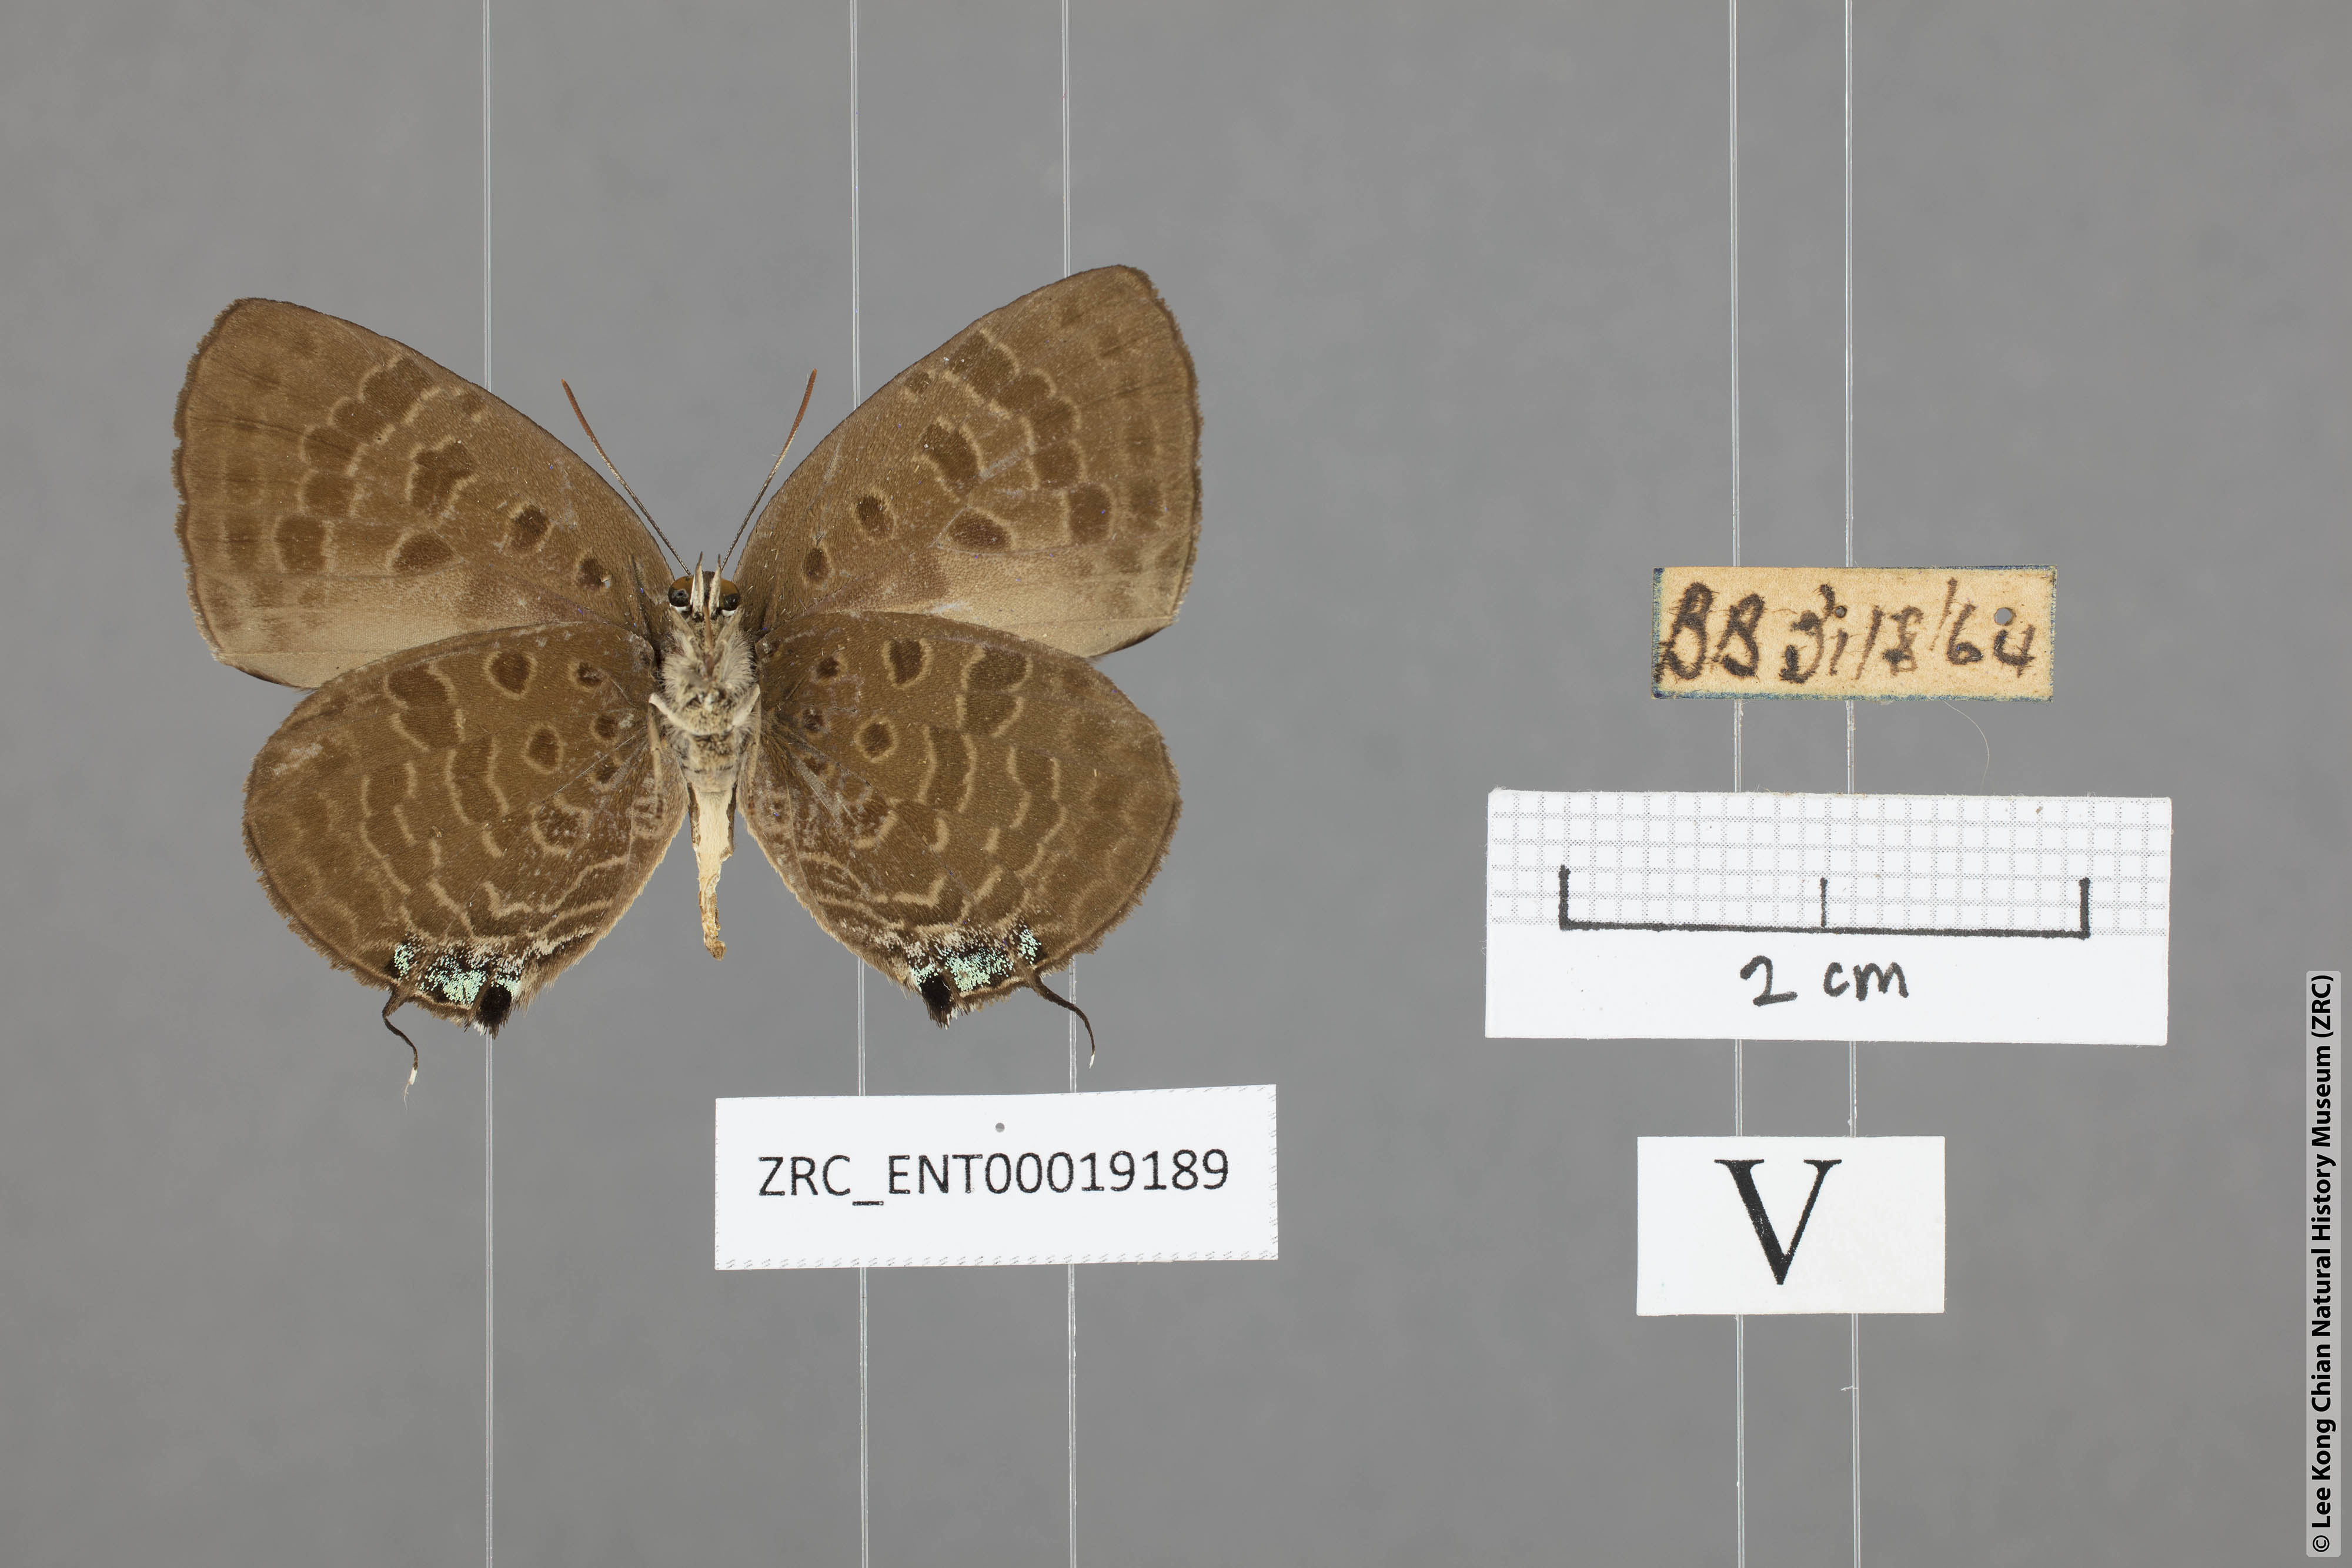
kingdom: Animalia
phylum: Arthropoda
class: Insecta
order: Lepidoptera
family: Lycaenidae
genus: Arhopala
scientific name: Arhopala aroa
